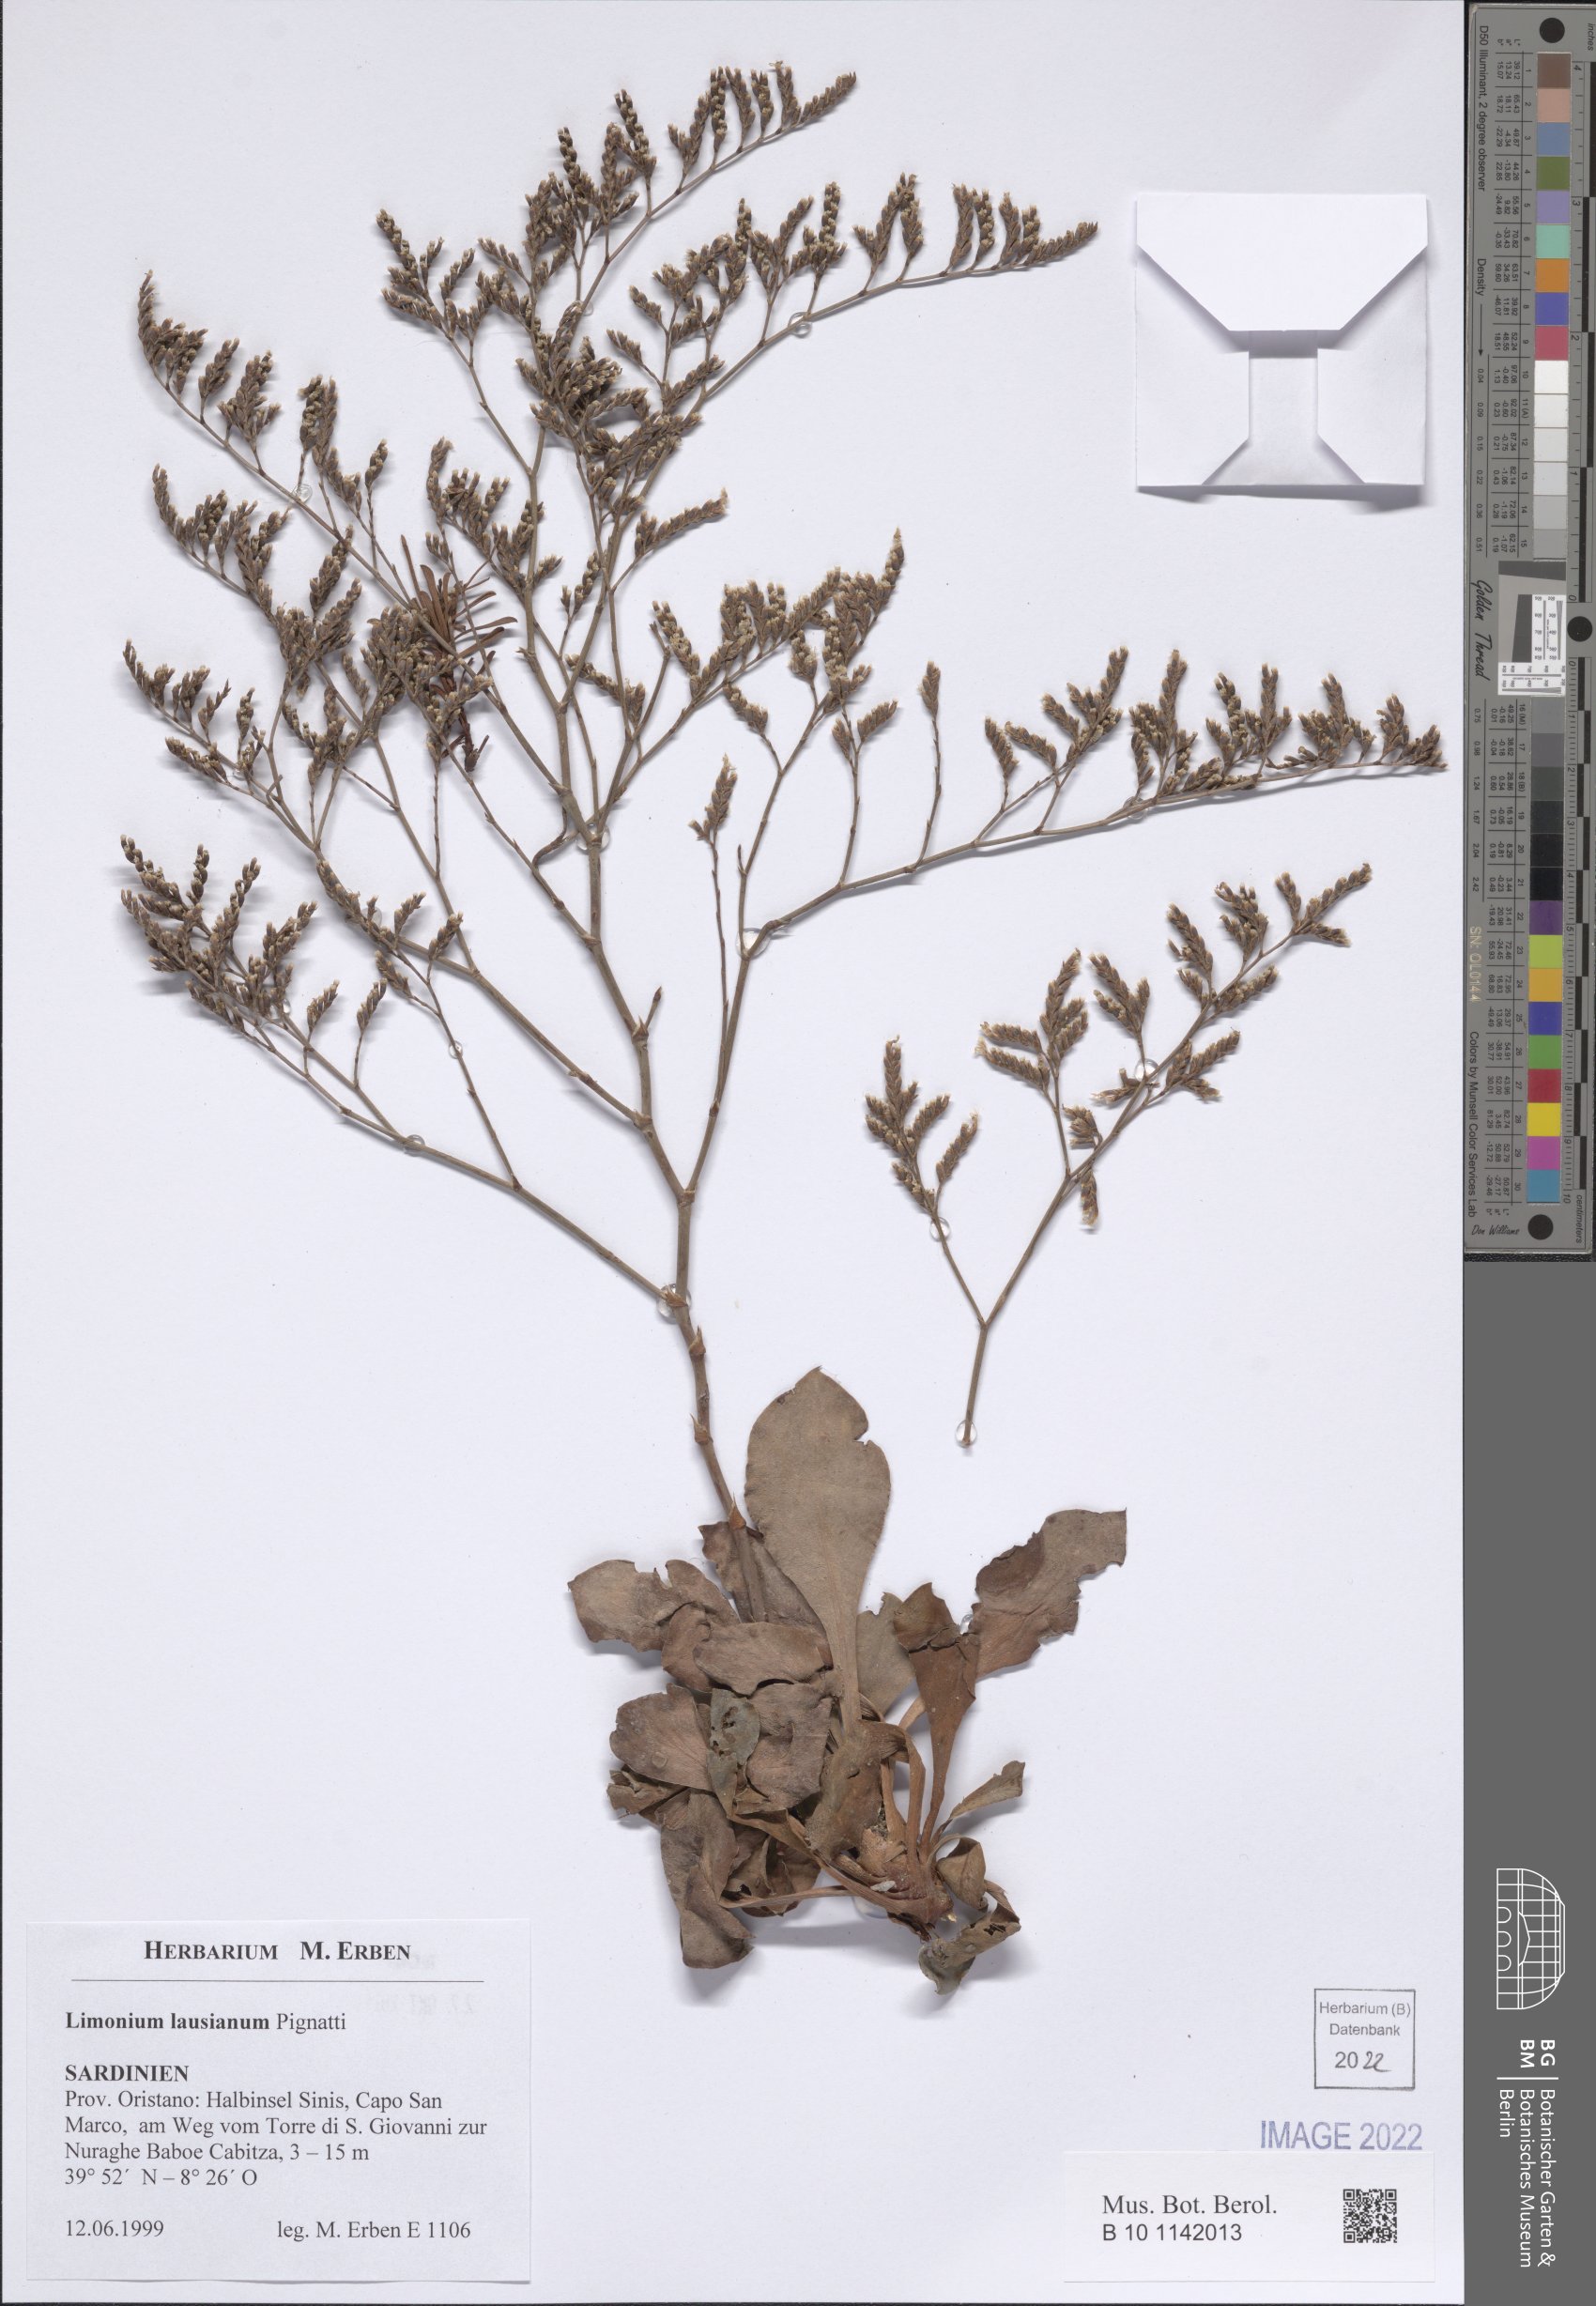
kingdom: Plantae
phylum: Tracheophyta
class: Magnoliopsida
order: Caryophyllales
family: Plumbaginaceae
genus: Limonium
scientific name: Limonium lausianum
